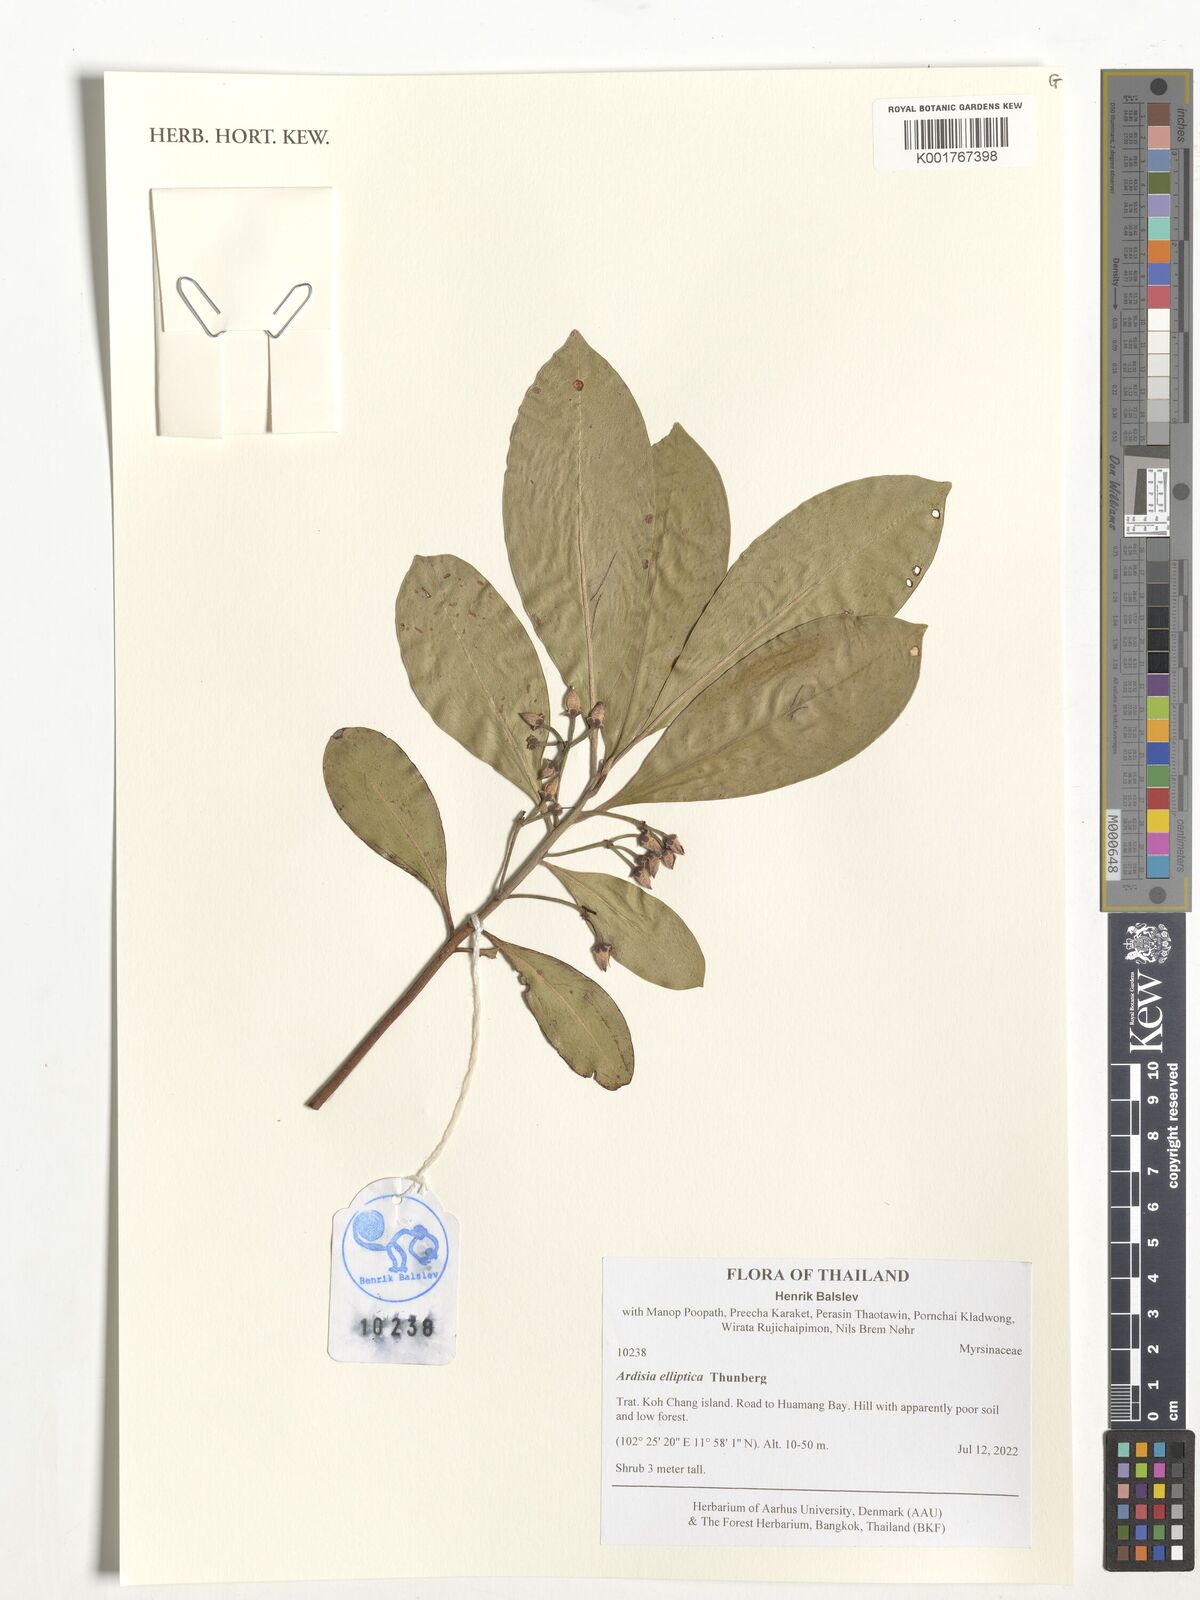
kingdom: Plantae
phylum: Tracheophyta
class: Magnoliopsida
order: Ericales
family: Primulaceae
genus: Ardisia
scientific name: Ardisia elliptica
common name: Shoebutton
